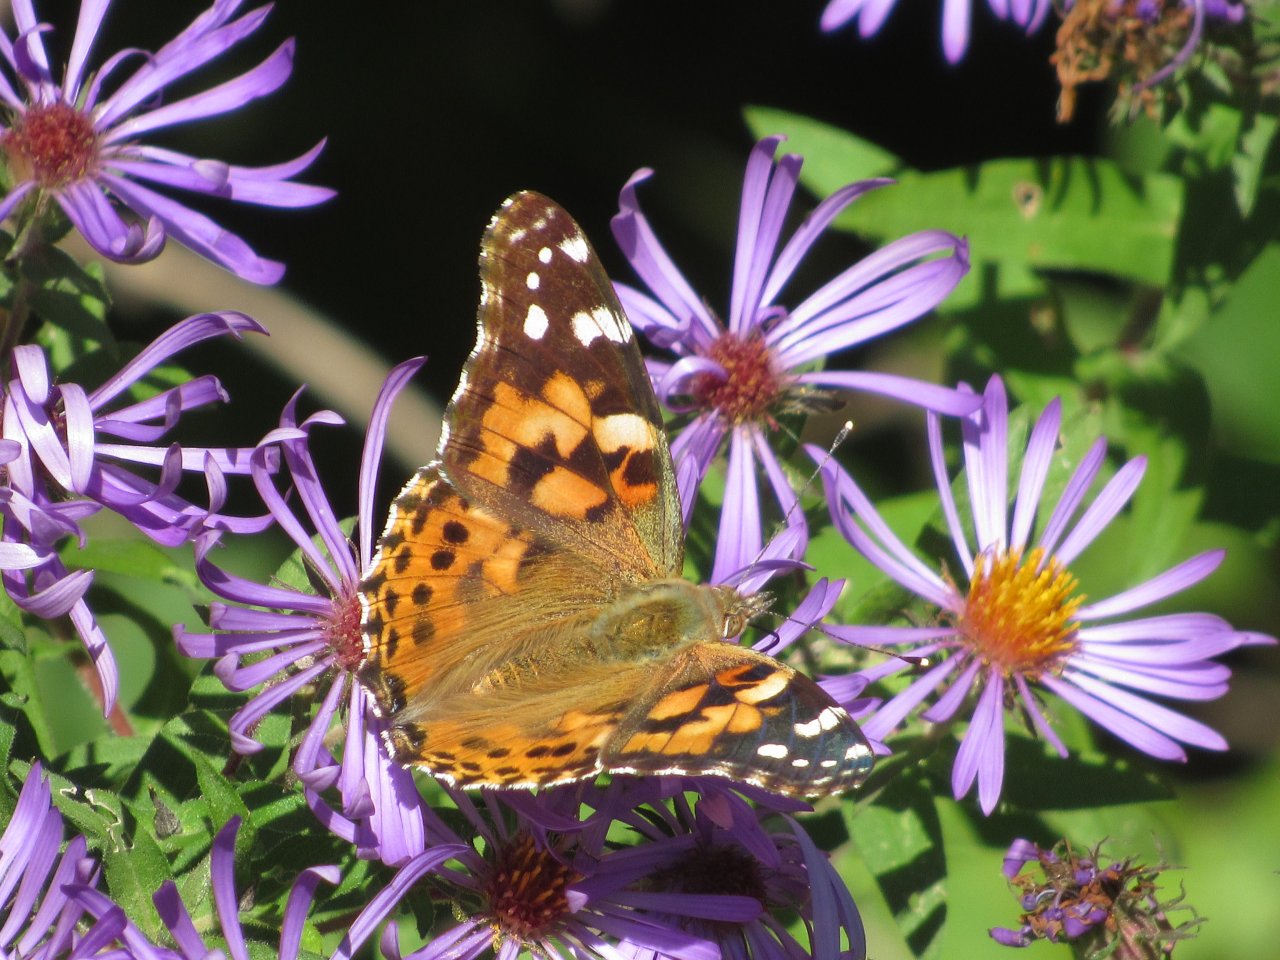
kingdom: Animalia
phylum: Arthropoda
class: Insecta
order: Lepidoptera
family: Nymphalidae
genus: Vanessa
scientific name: Vanessa cardui
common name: Painted Lady
